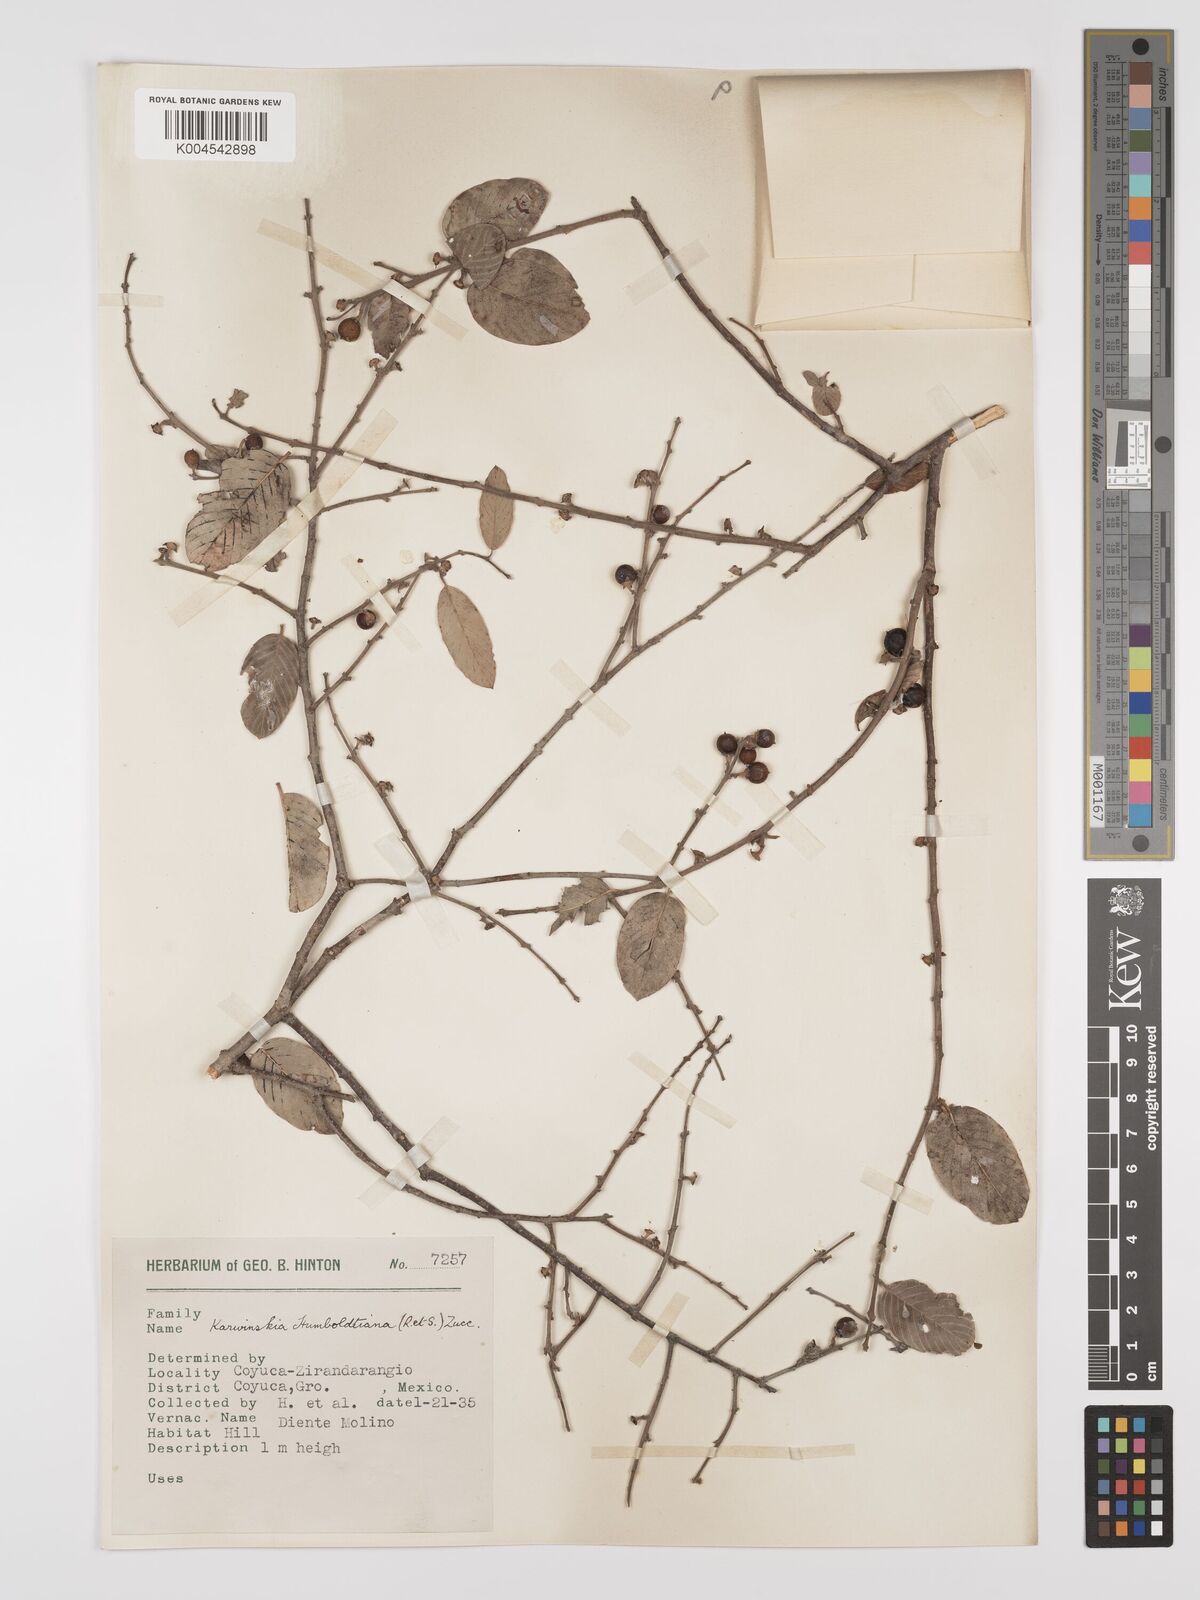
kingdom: Plantae
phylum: Tracheophyta
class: Magnoliopsida
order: Rosales
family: Rhamnaceae
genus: Karwinskia
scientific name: Karwinskia humboldtiana
